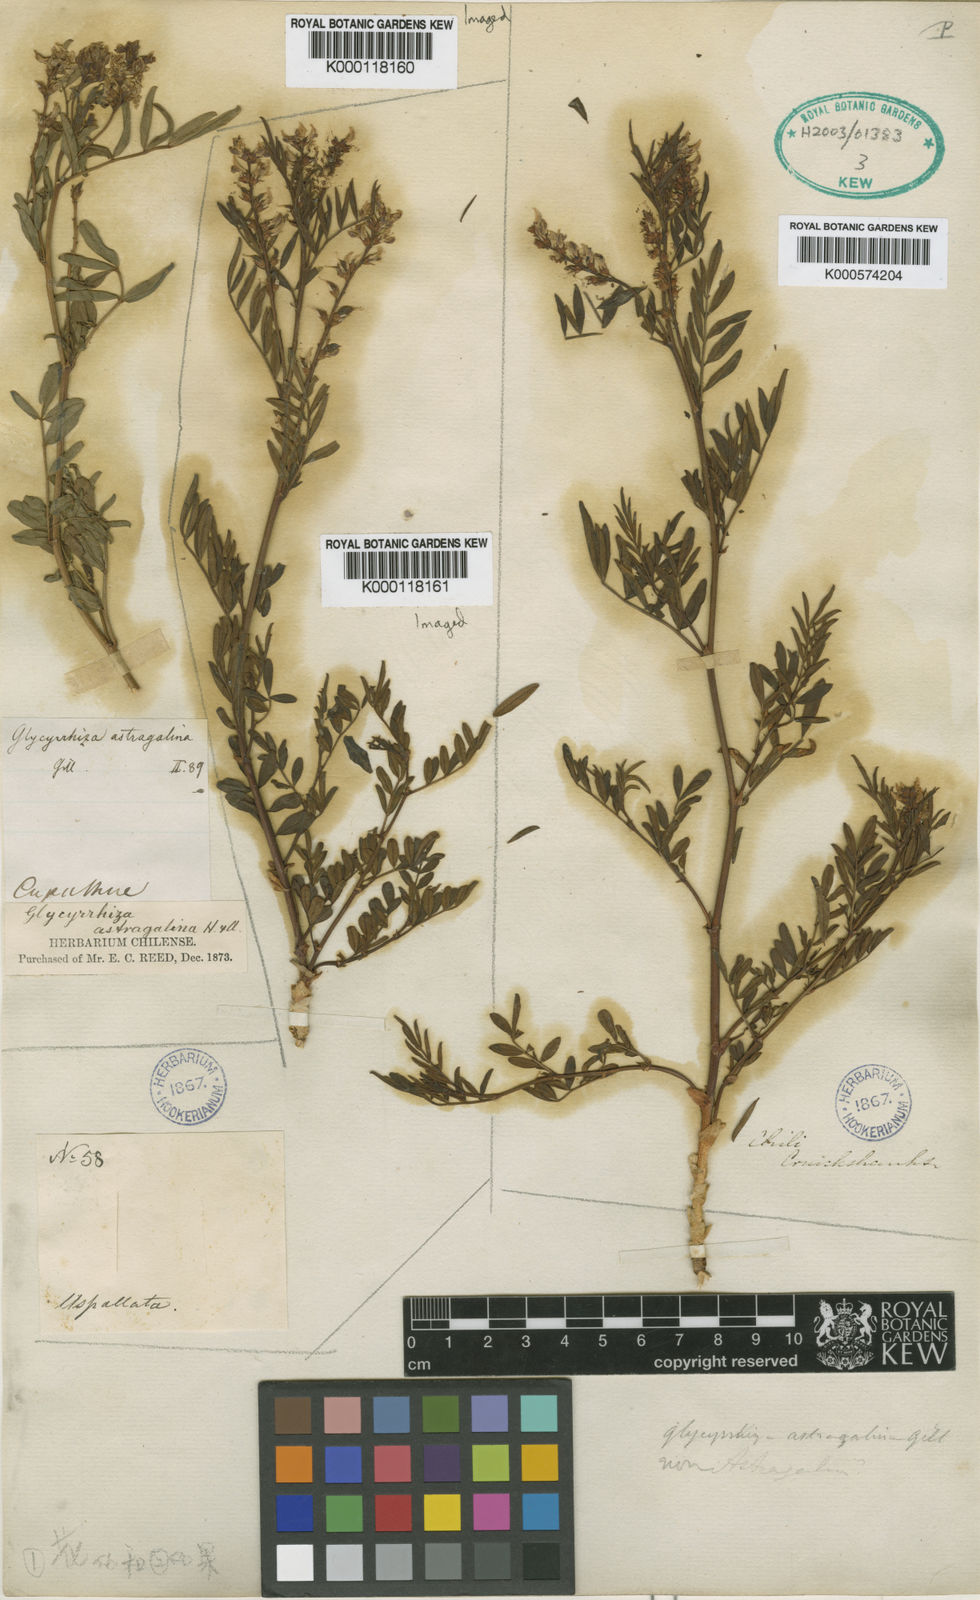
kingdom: Plantae
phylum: Tracheophyta
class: Magnoliopsida
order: Fabales
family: Fabaceae
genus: Glycyrrhiza
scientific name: Glycyrrhiza astragalina
